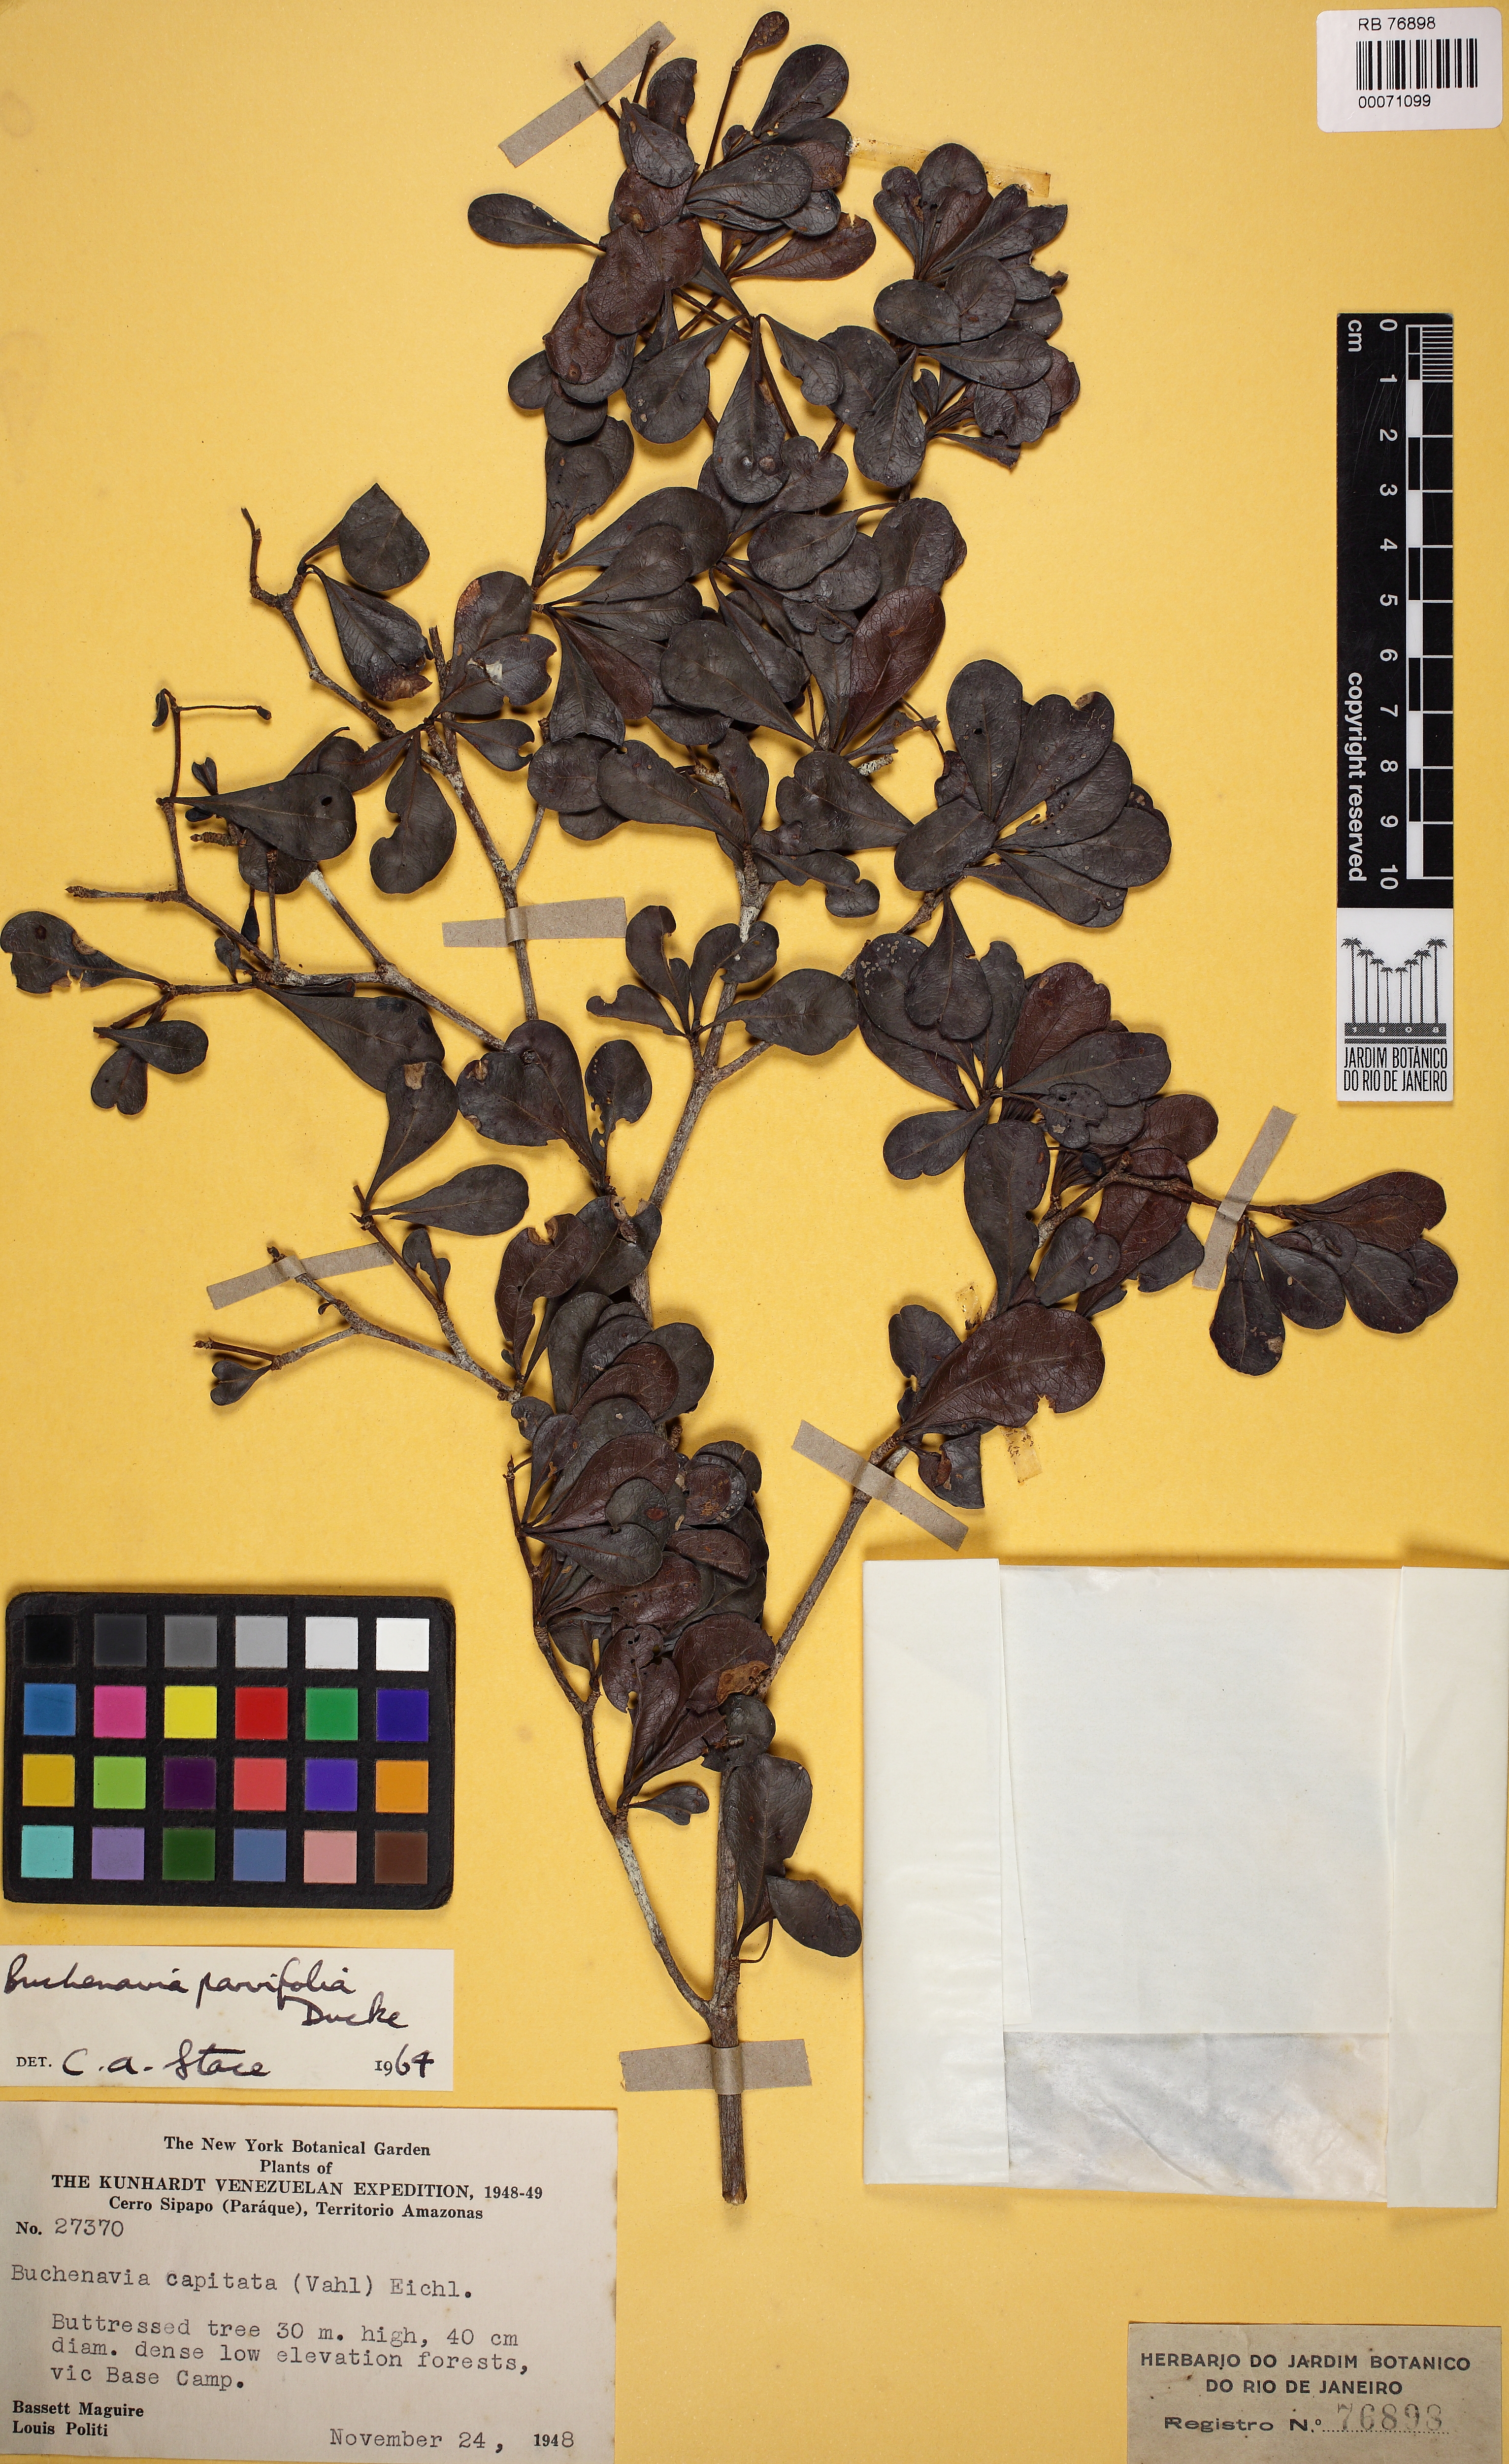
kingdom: Plantae
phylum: Tracheophyta
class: Magnoliopsida
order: Myrtales
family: Combretaceae
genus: Terminalia
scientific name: Terminalia parvifolia
